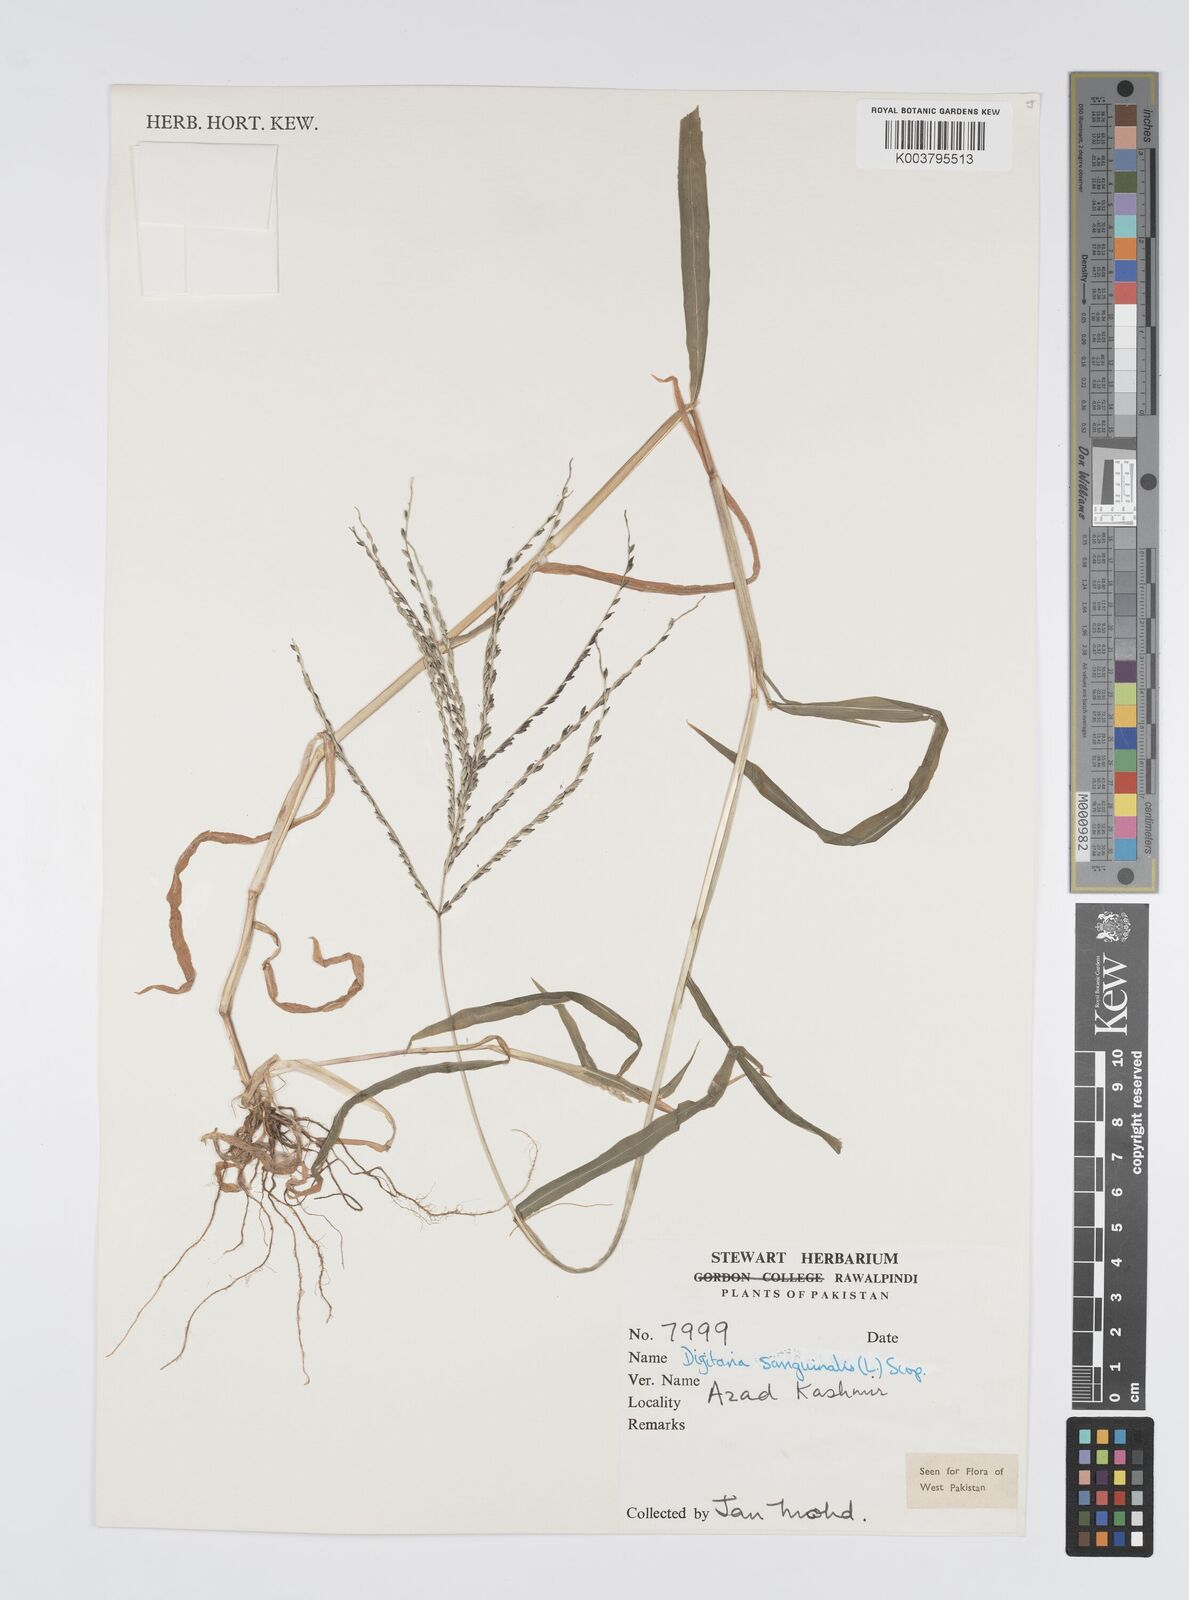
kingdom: Plantae
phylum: Tracheophyta
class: Liliopsida
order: Poales
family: Poaceae
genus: Digitaria
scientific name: Digitaria sanguinalis
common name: Hairy crabgrass
